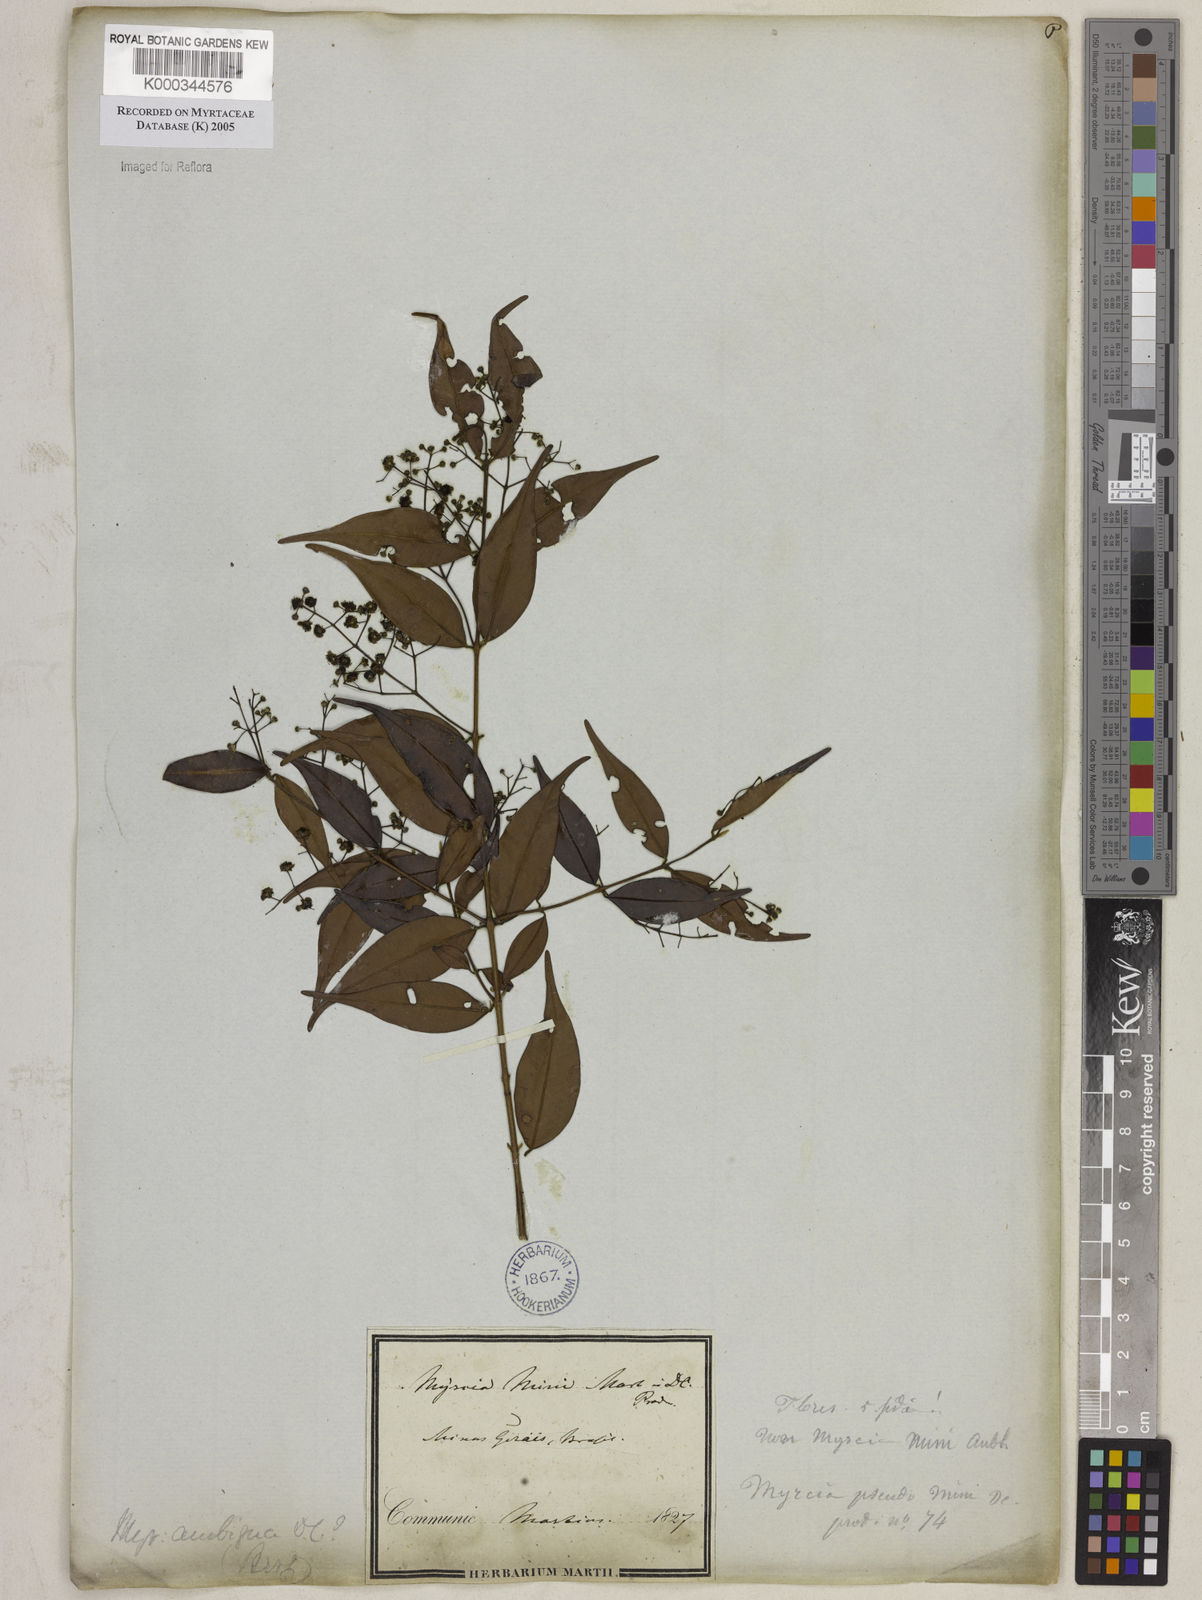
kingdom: Plantae
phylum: Tracheophyta
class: Magnoliopsida
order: Myrtales
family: Myrtaceae
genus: Myrcia
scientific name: Myrcia sylvatica
